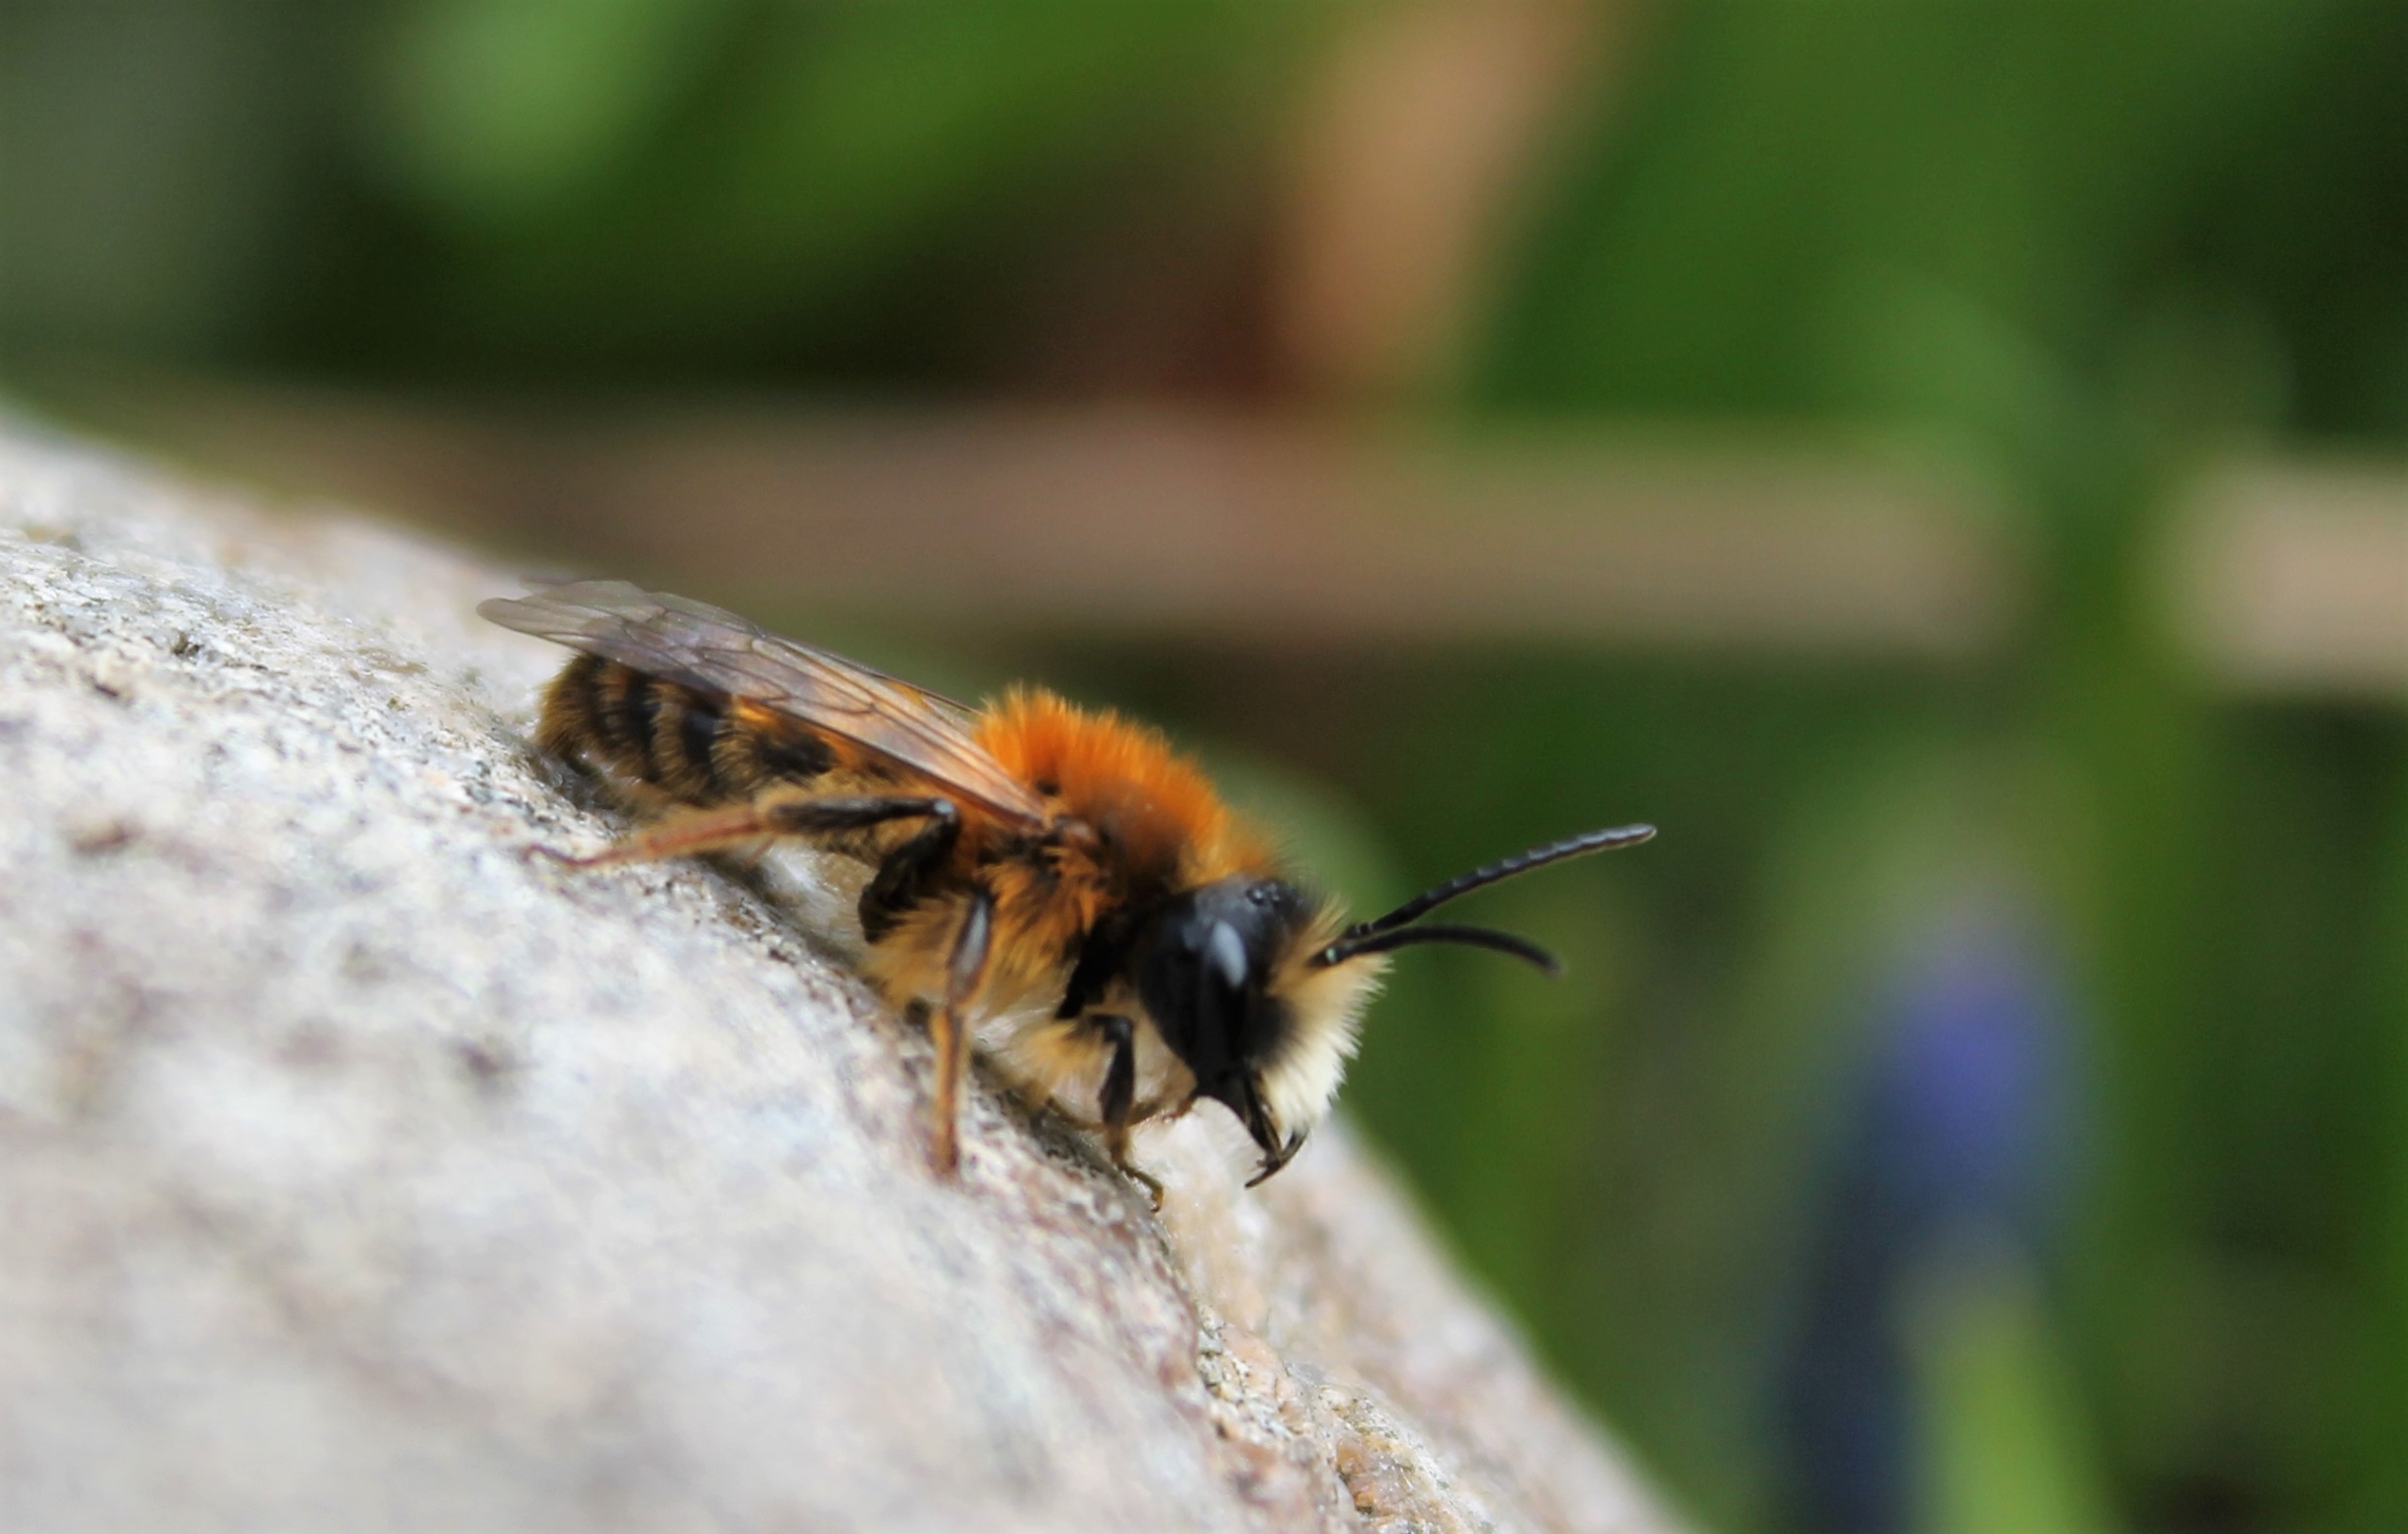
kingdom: Animalia
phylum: Arthropoda
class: Insecta
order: Hymenoptera
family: Andrenidae
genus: Andrena
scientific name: Andrena fulva
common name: Rødpelset jordbi
